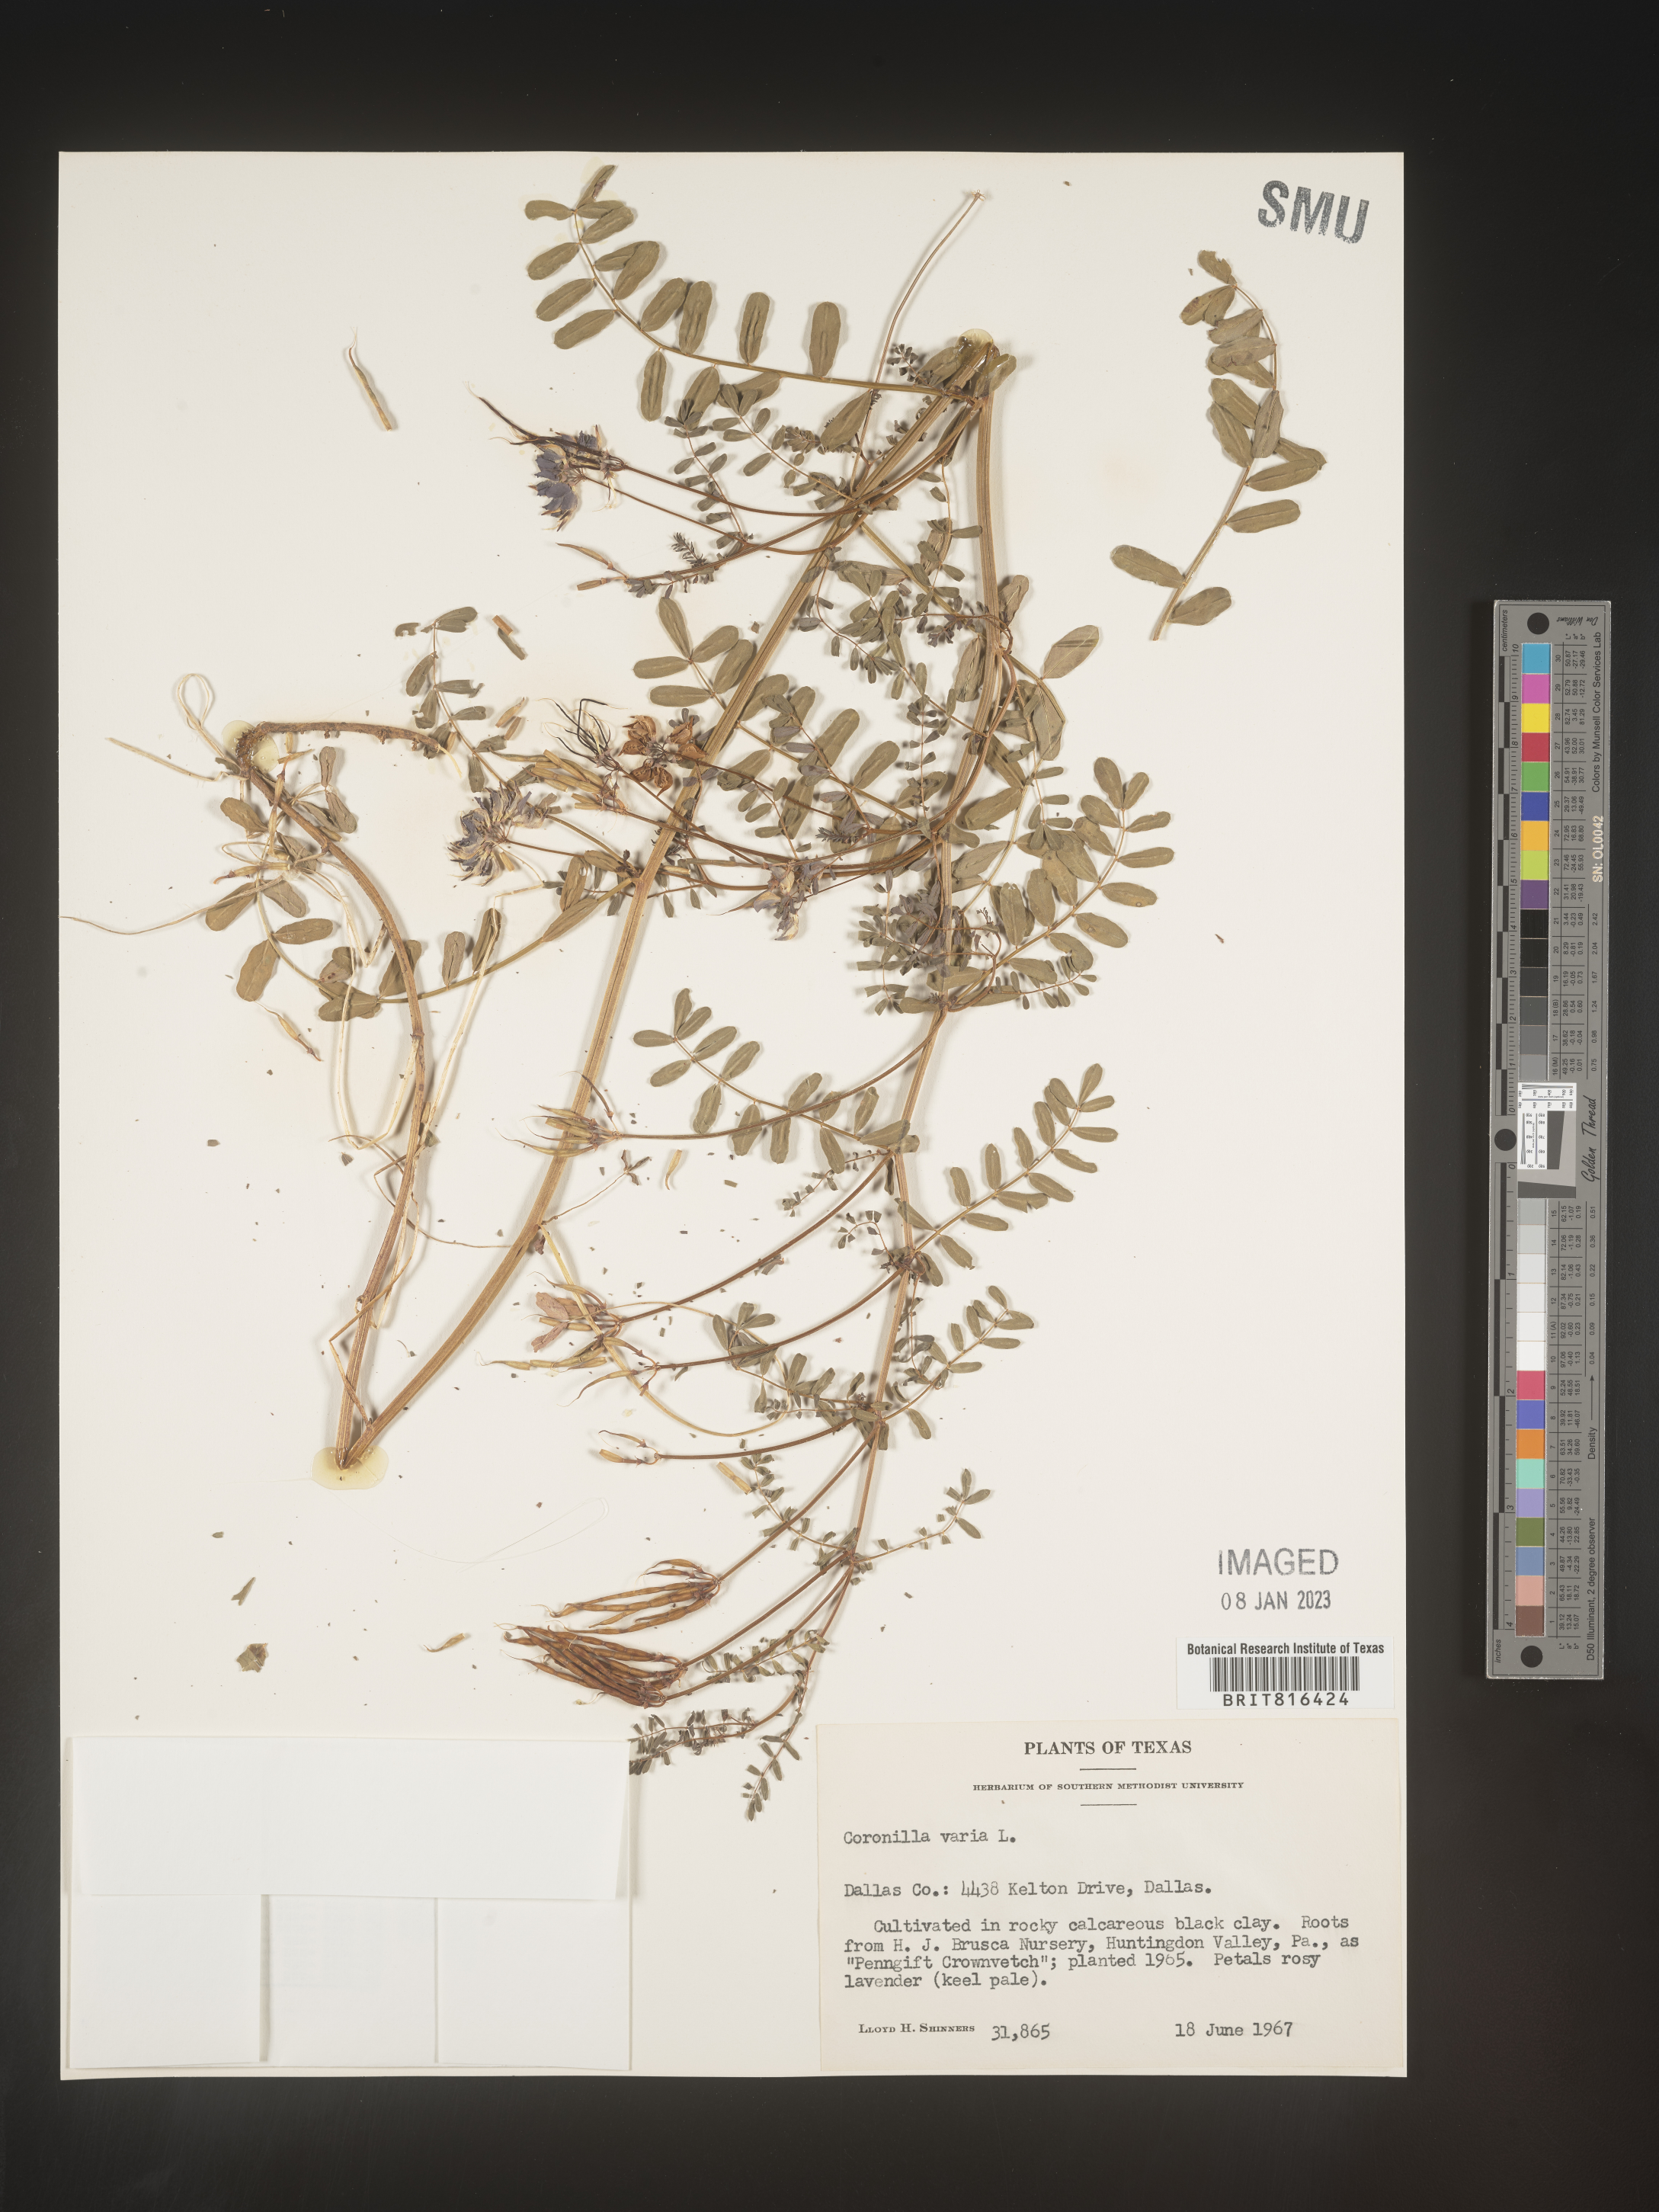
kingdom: Plantae
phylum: Tracheophyta
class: Magnoliopsida
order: Fabales
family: Fabaceae
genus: Coronilla
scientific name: Coronilla
